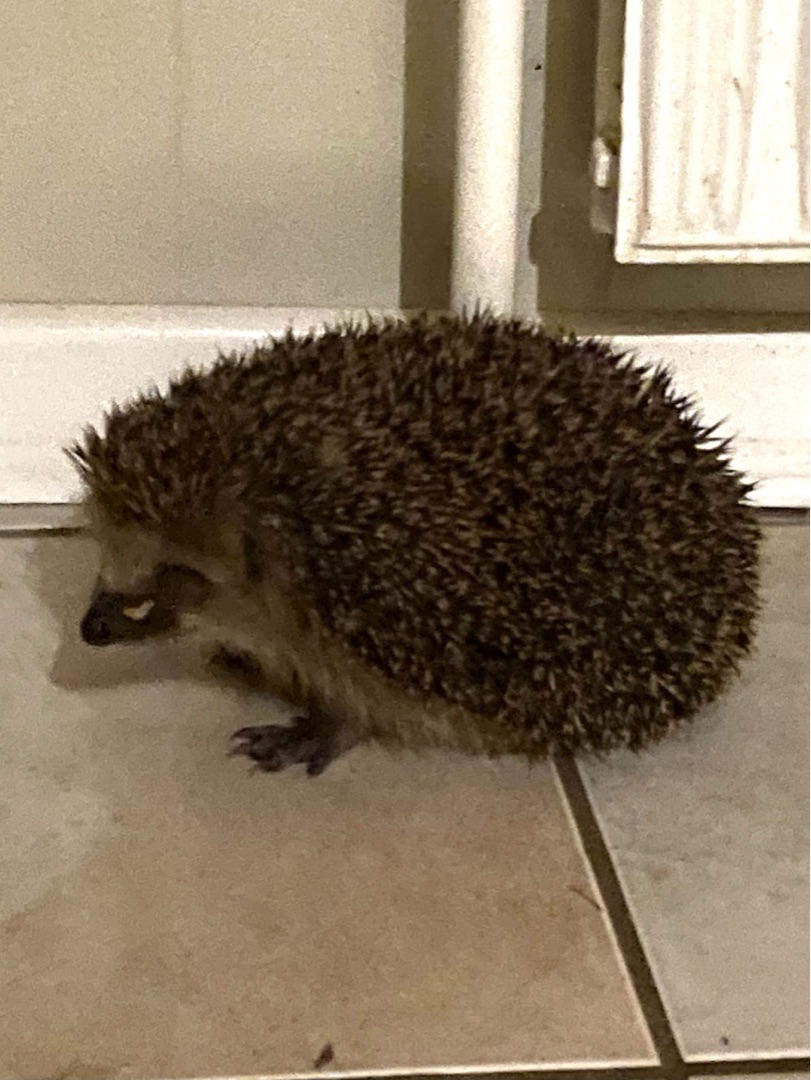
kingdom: Animalia
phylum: Chordata
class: Mammalia
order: Erinaceomorpha
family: Erinaceidae
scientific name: Erinaceidae
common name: Pindsvin
